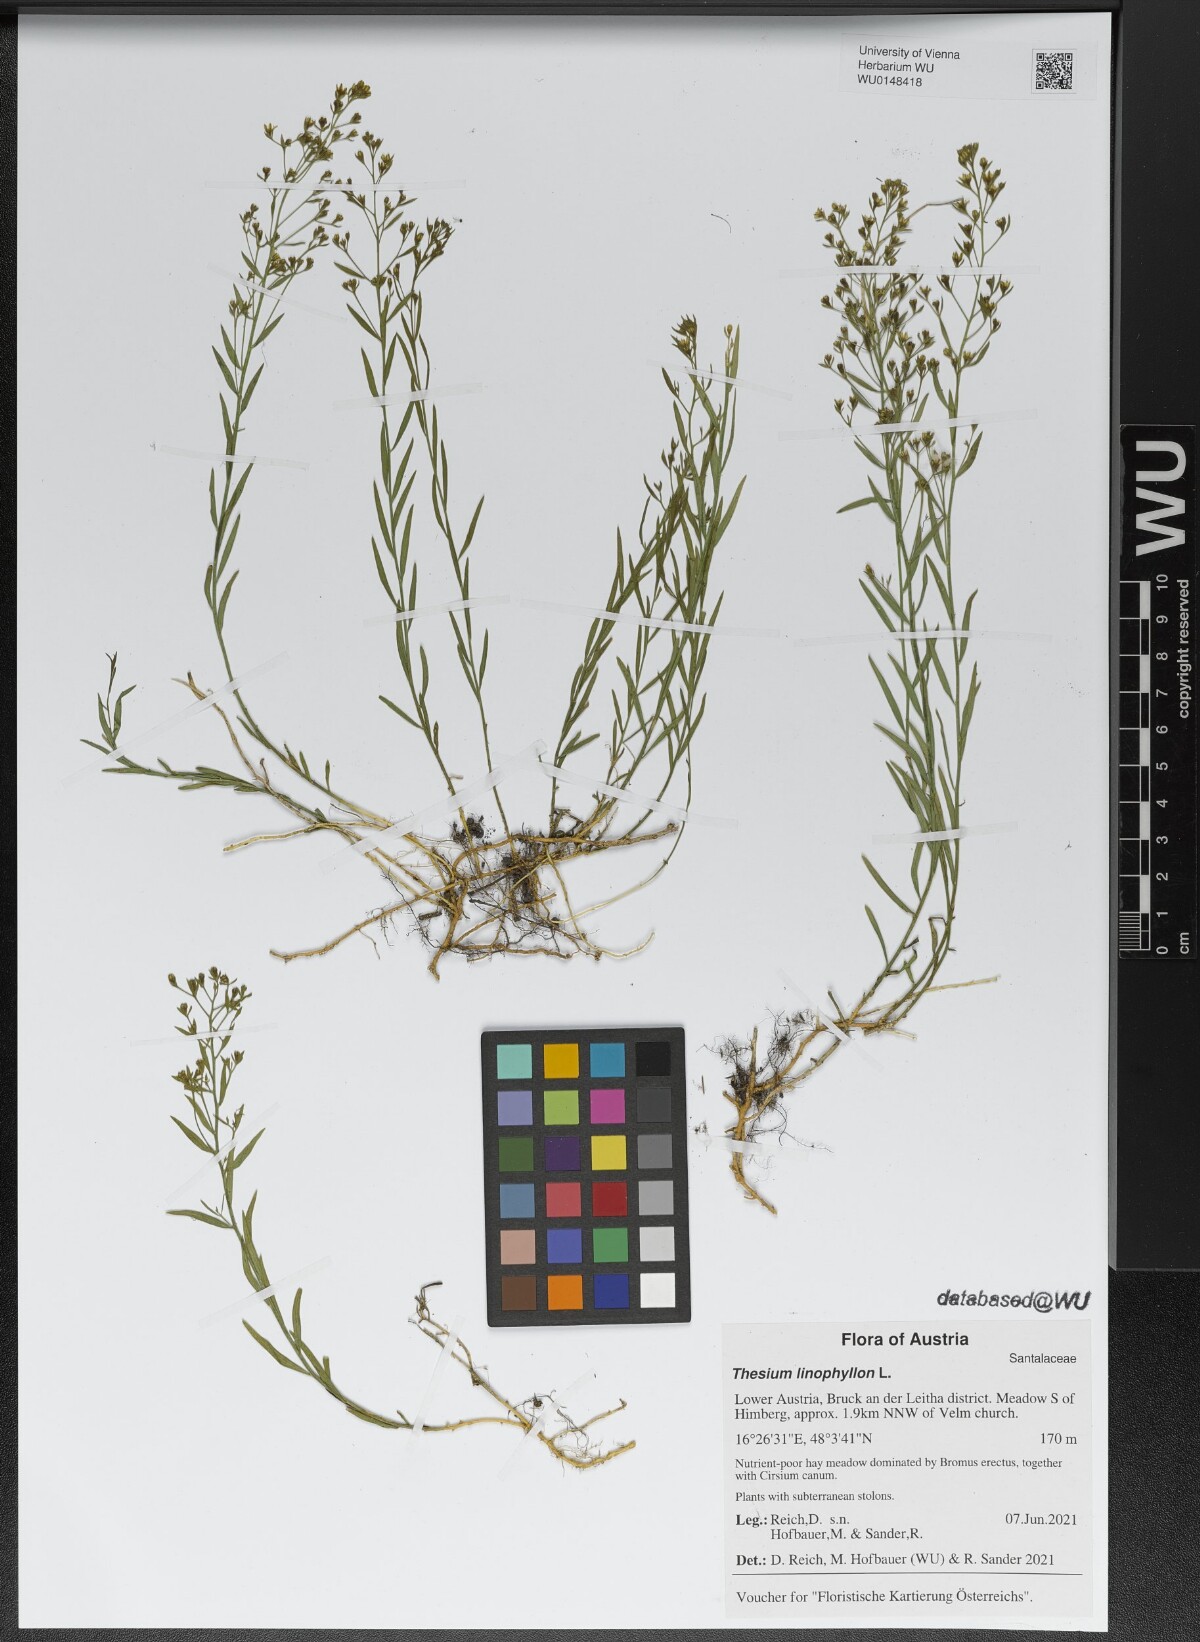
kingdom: Plantae
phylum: Tracheophyta
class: Magnoliopsida
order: Santalales
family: Thesiaceae
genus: Thesium
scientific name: Thesium linophyllon
